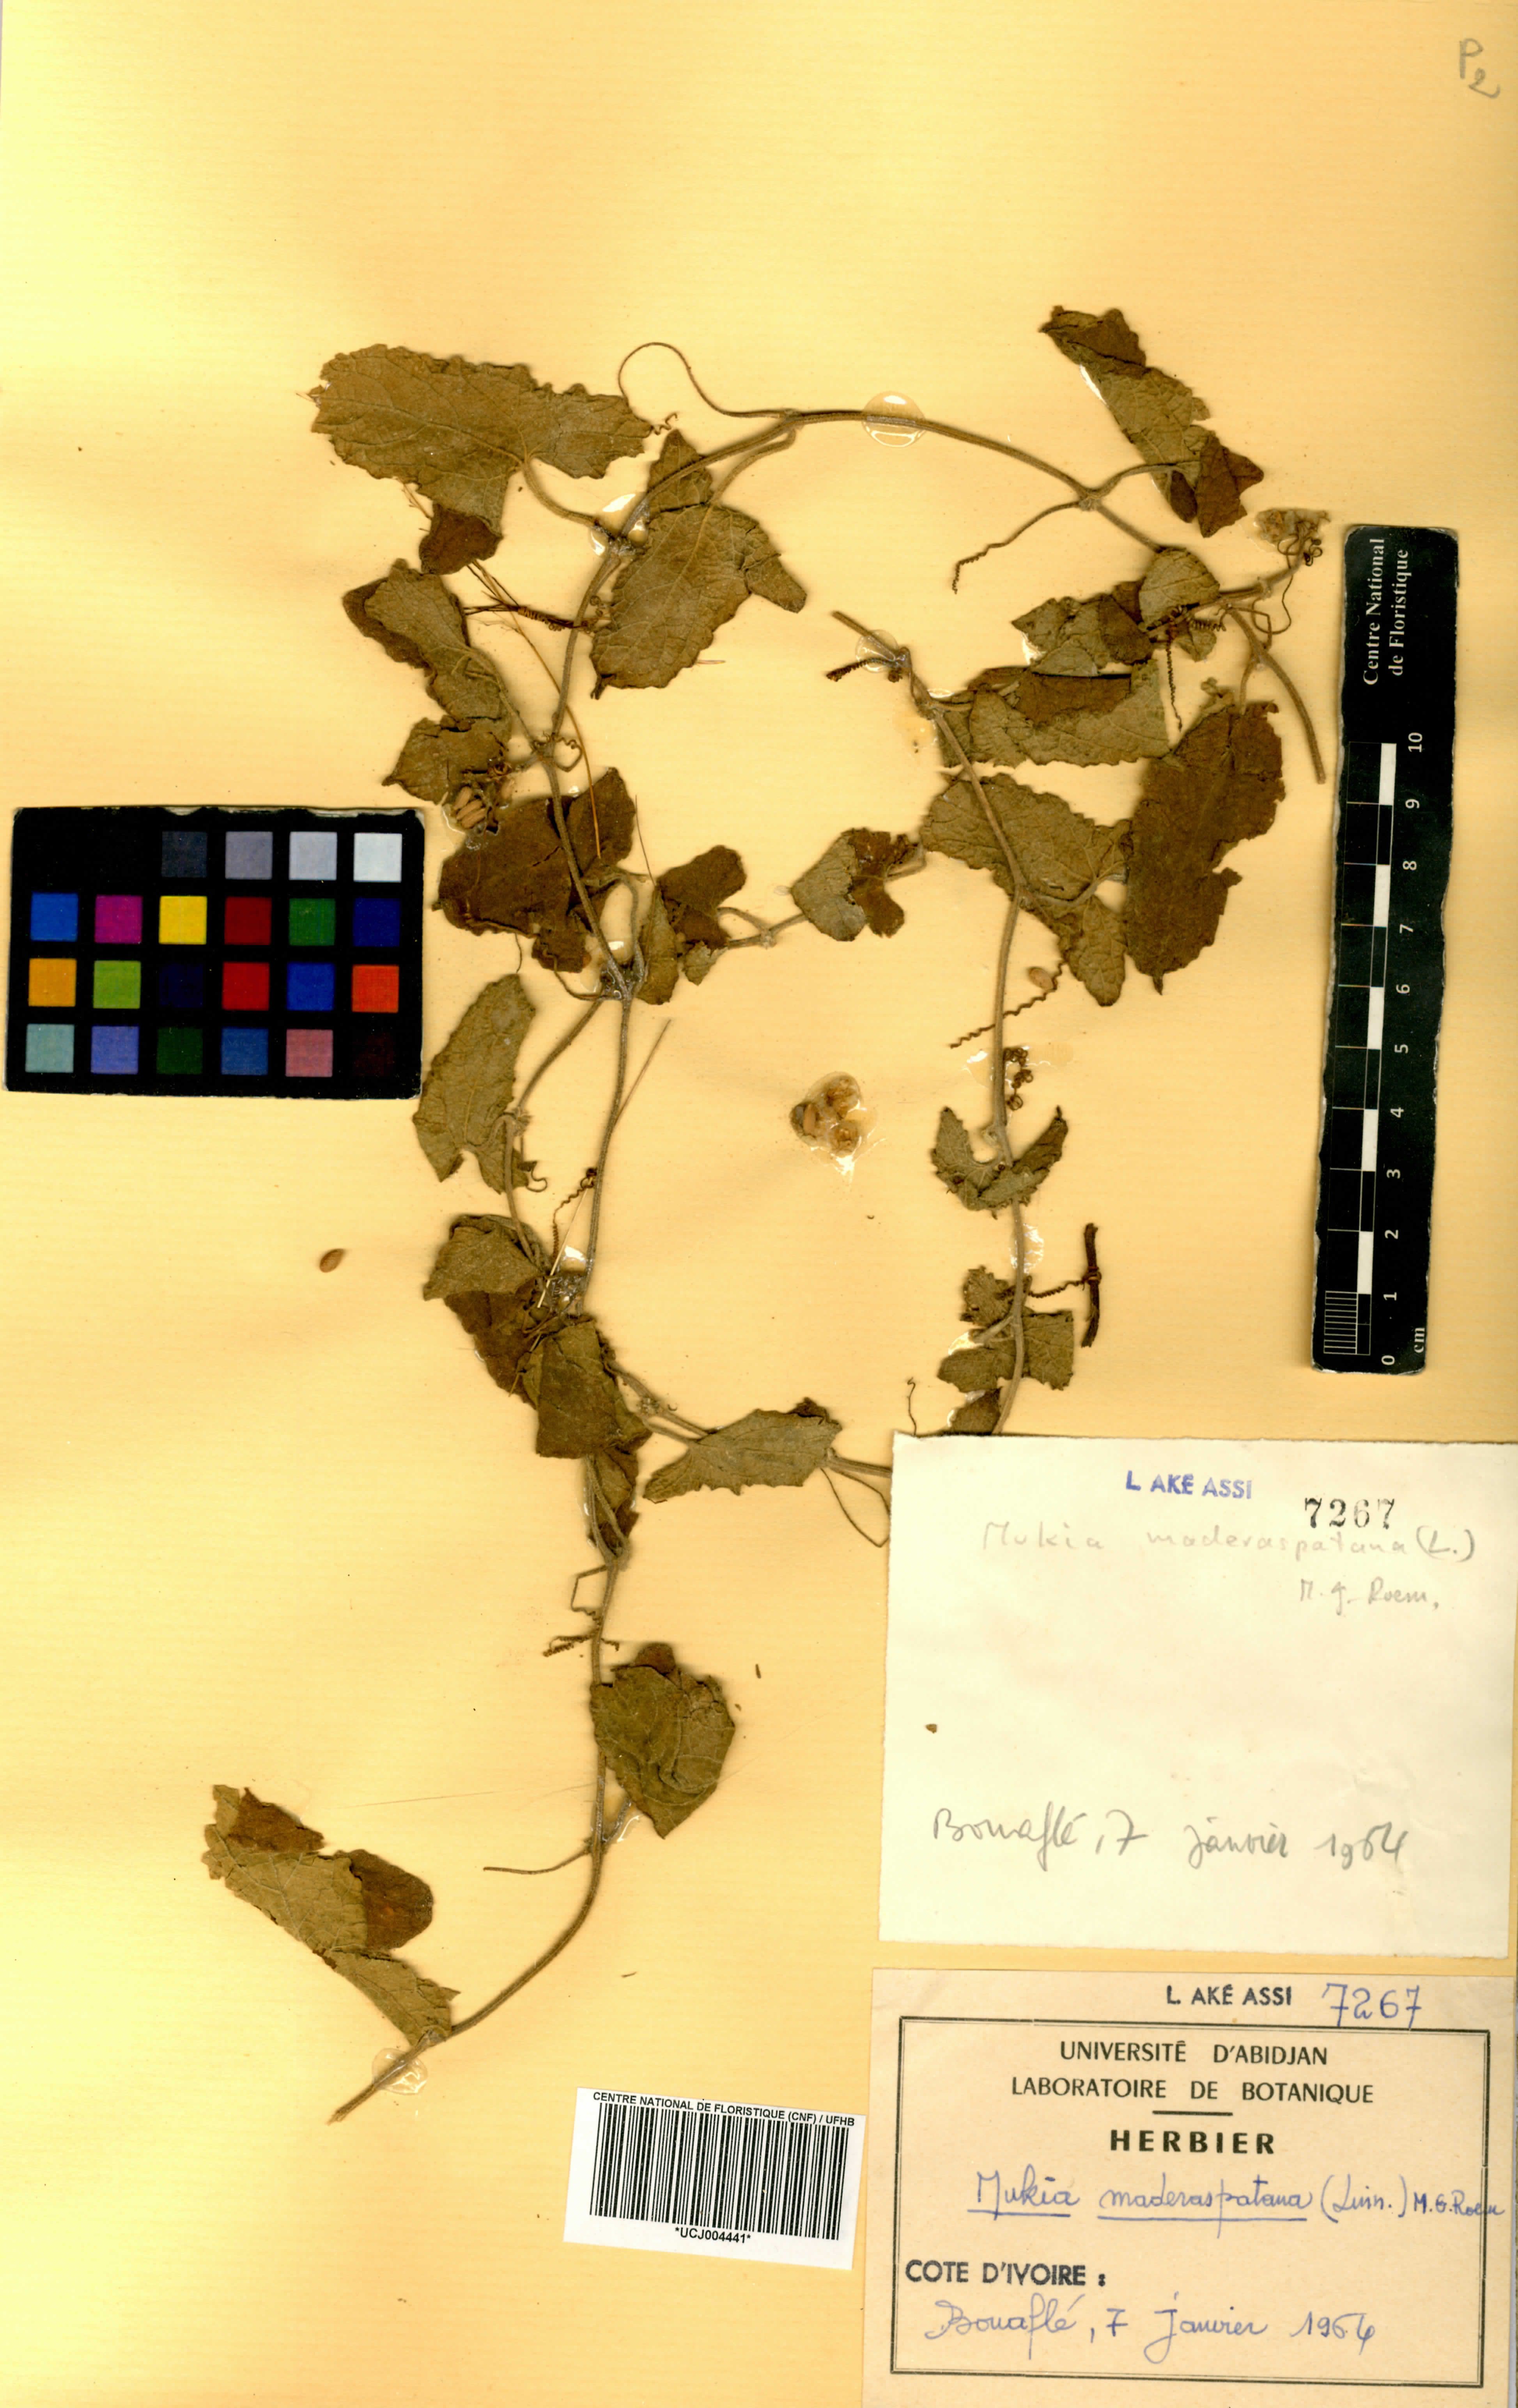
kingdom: Plantae
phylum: Tracheophyta
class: Magnoliopsida
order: Cucurbitales
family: Cucurbitaceae
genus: Cucumis
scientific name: Cucumis maderaspatanus
